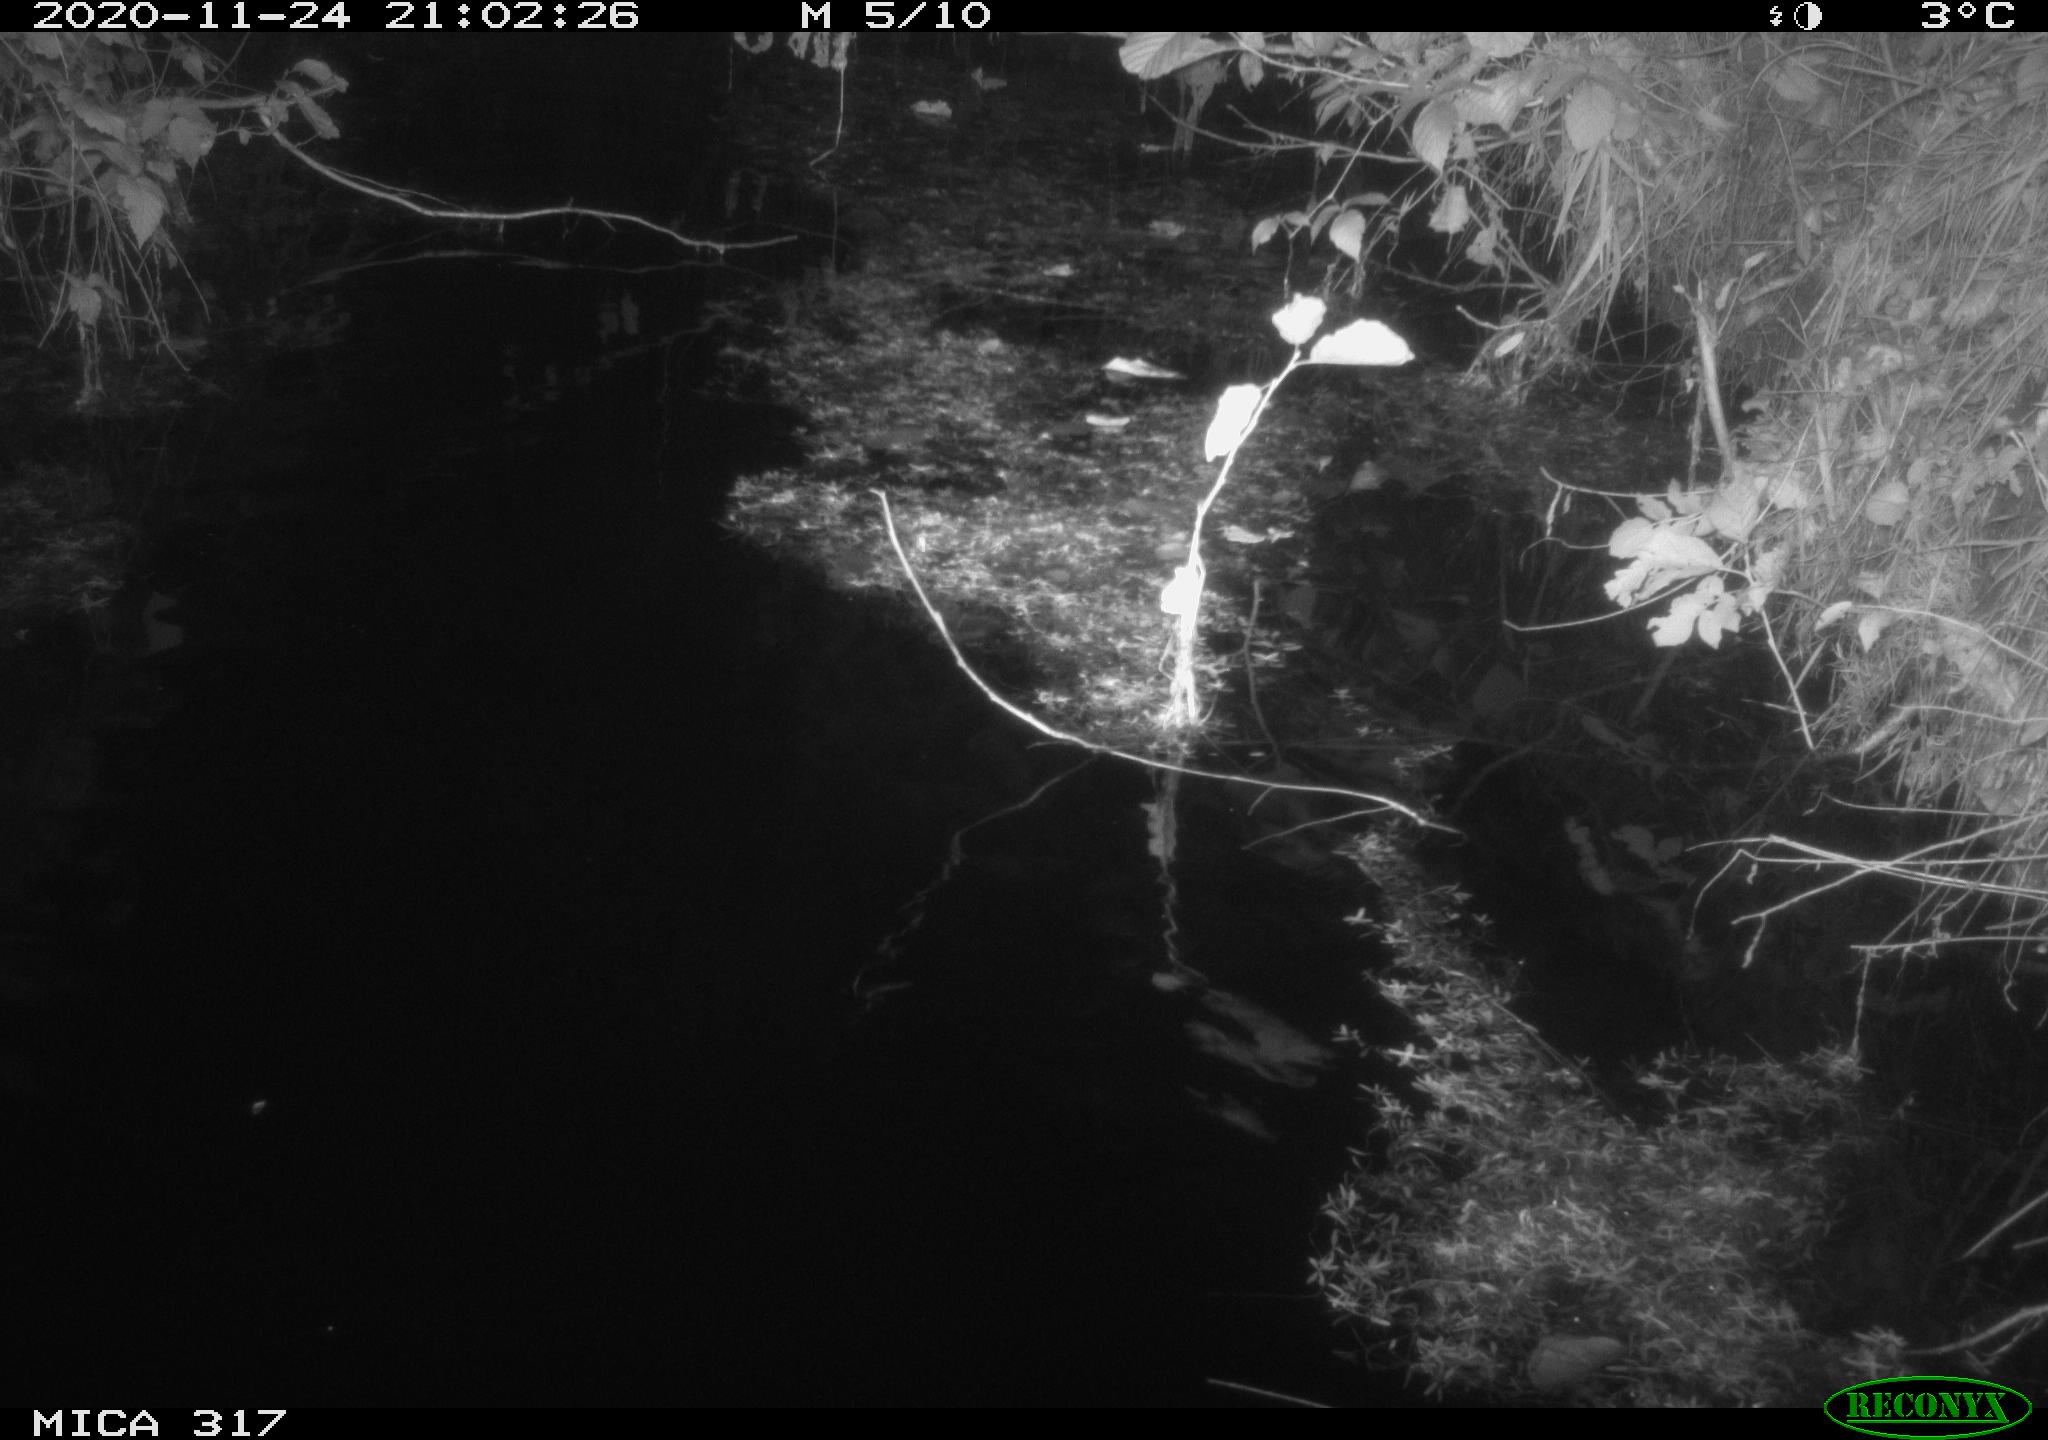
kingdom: Animalia
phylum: Chordata
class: Mammalia
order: Rodentia
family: Muridae
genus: Rattus
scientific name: Rattus norvegicus
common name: Brown rat
